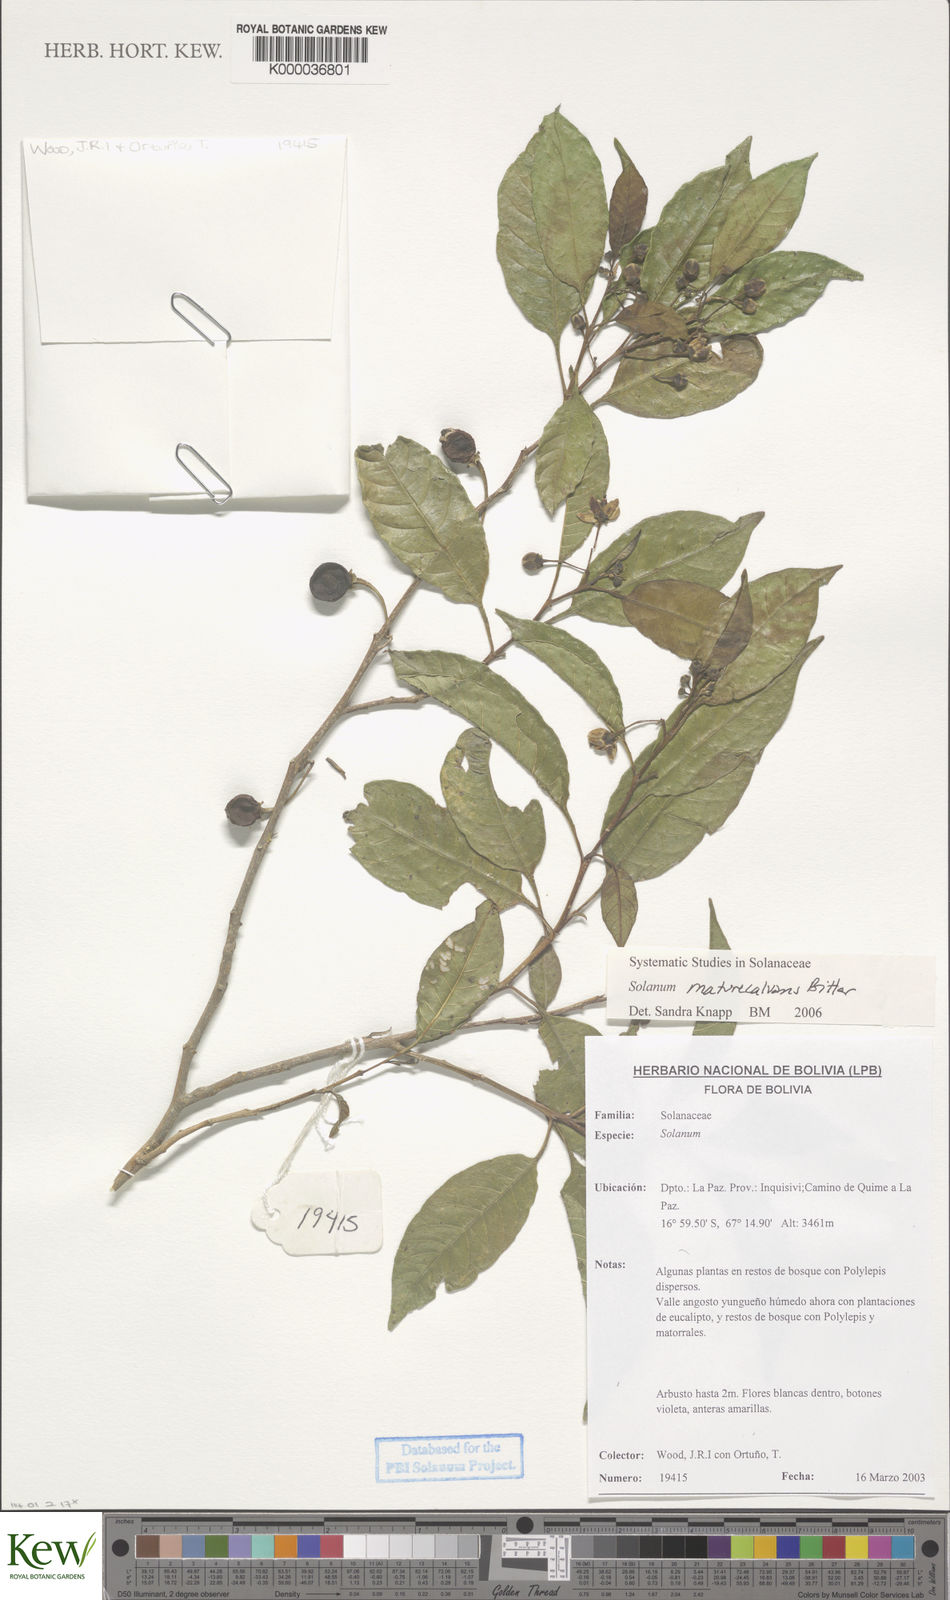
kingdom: Plantae
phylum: Tracheophyta
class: Magnoliopsida
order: Solanales
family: Solanaceae
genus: Solanum
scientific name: Solanum maturecalvans
